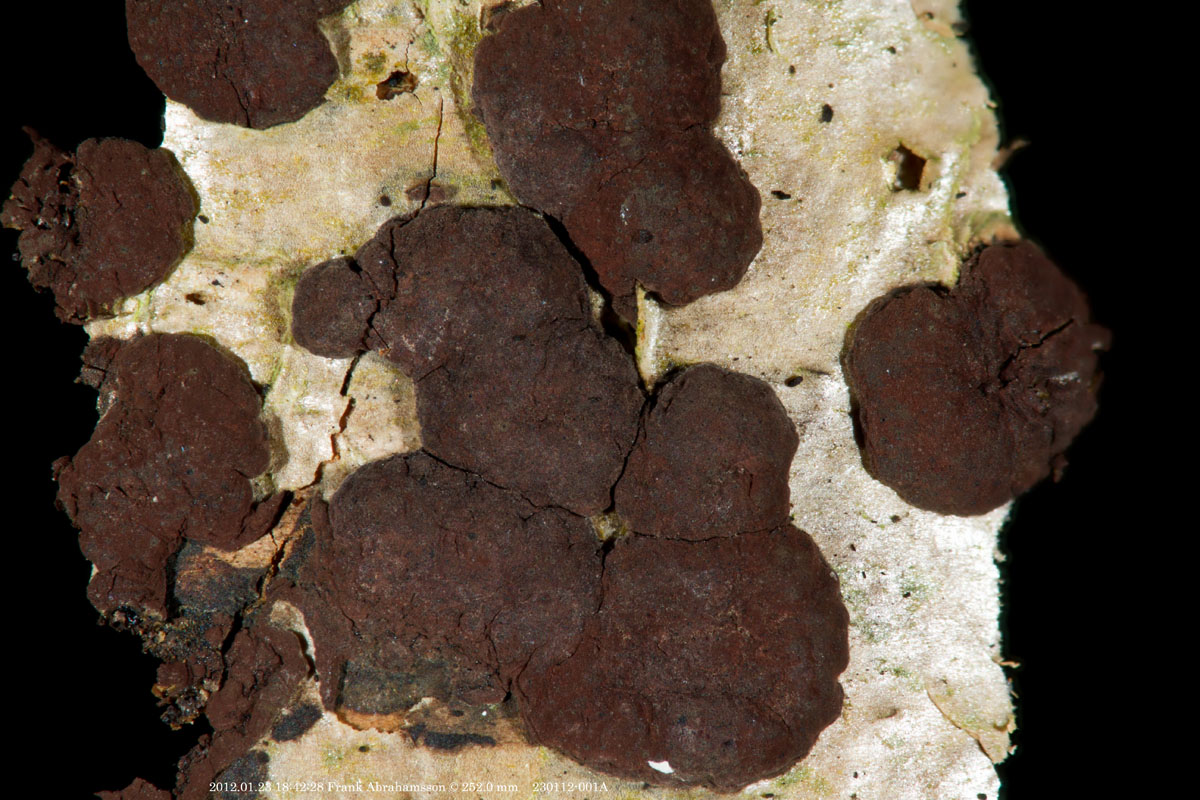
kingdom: Fungi
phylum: Ascomycota
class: Sordariomycetes
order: Xylariales
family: Hypoxylaceae
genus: Hypoxylon
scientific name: Hypoxylon fuscum
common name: kegleformet kulbær
